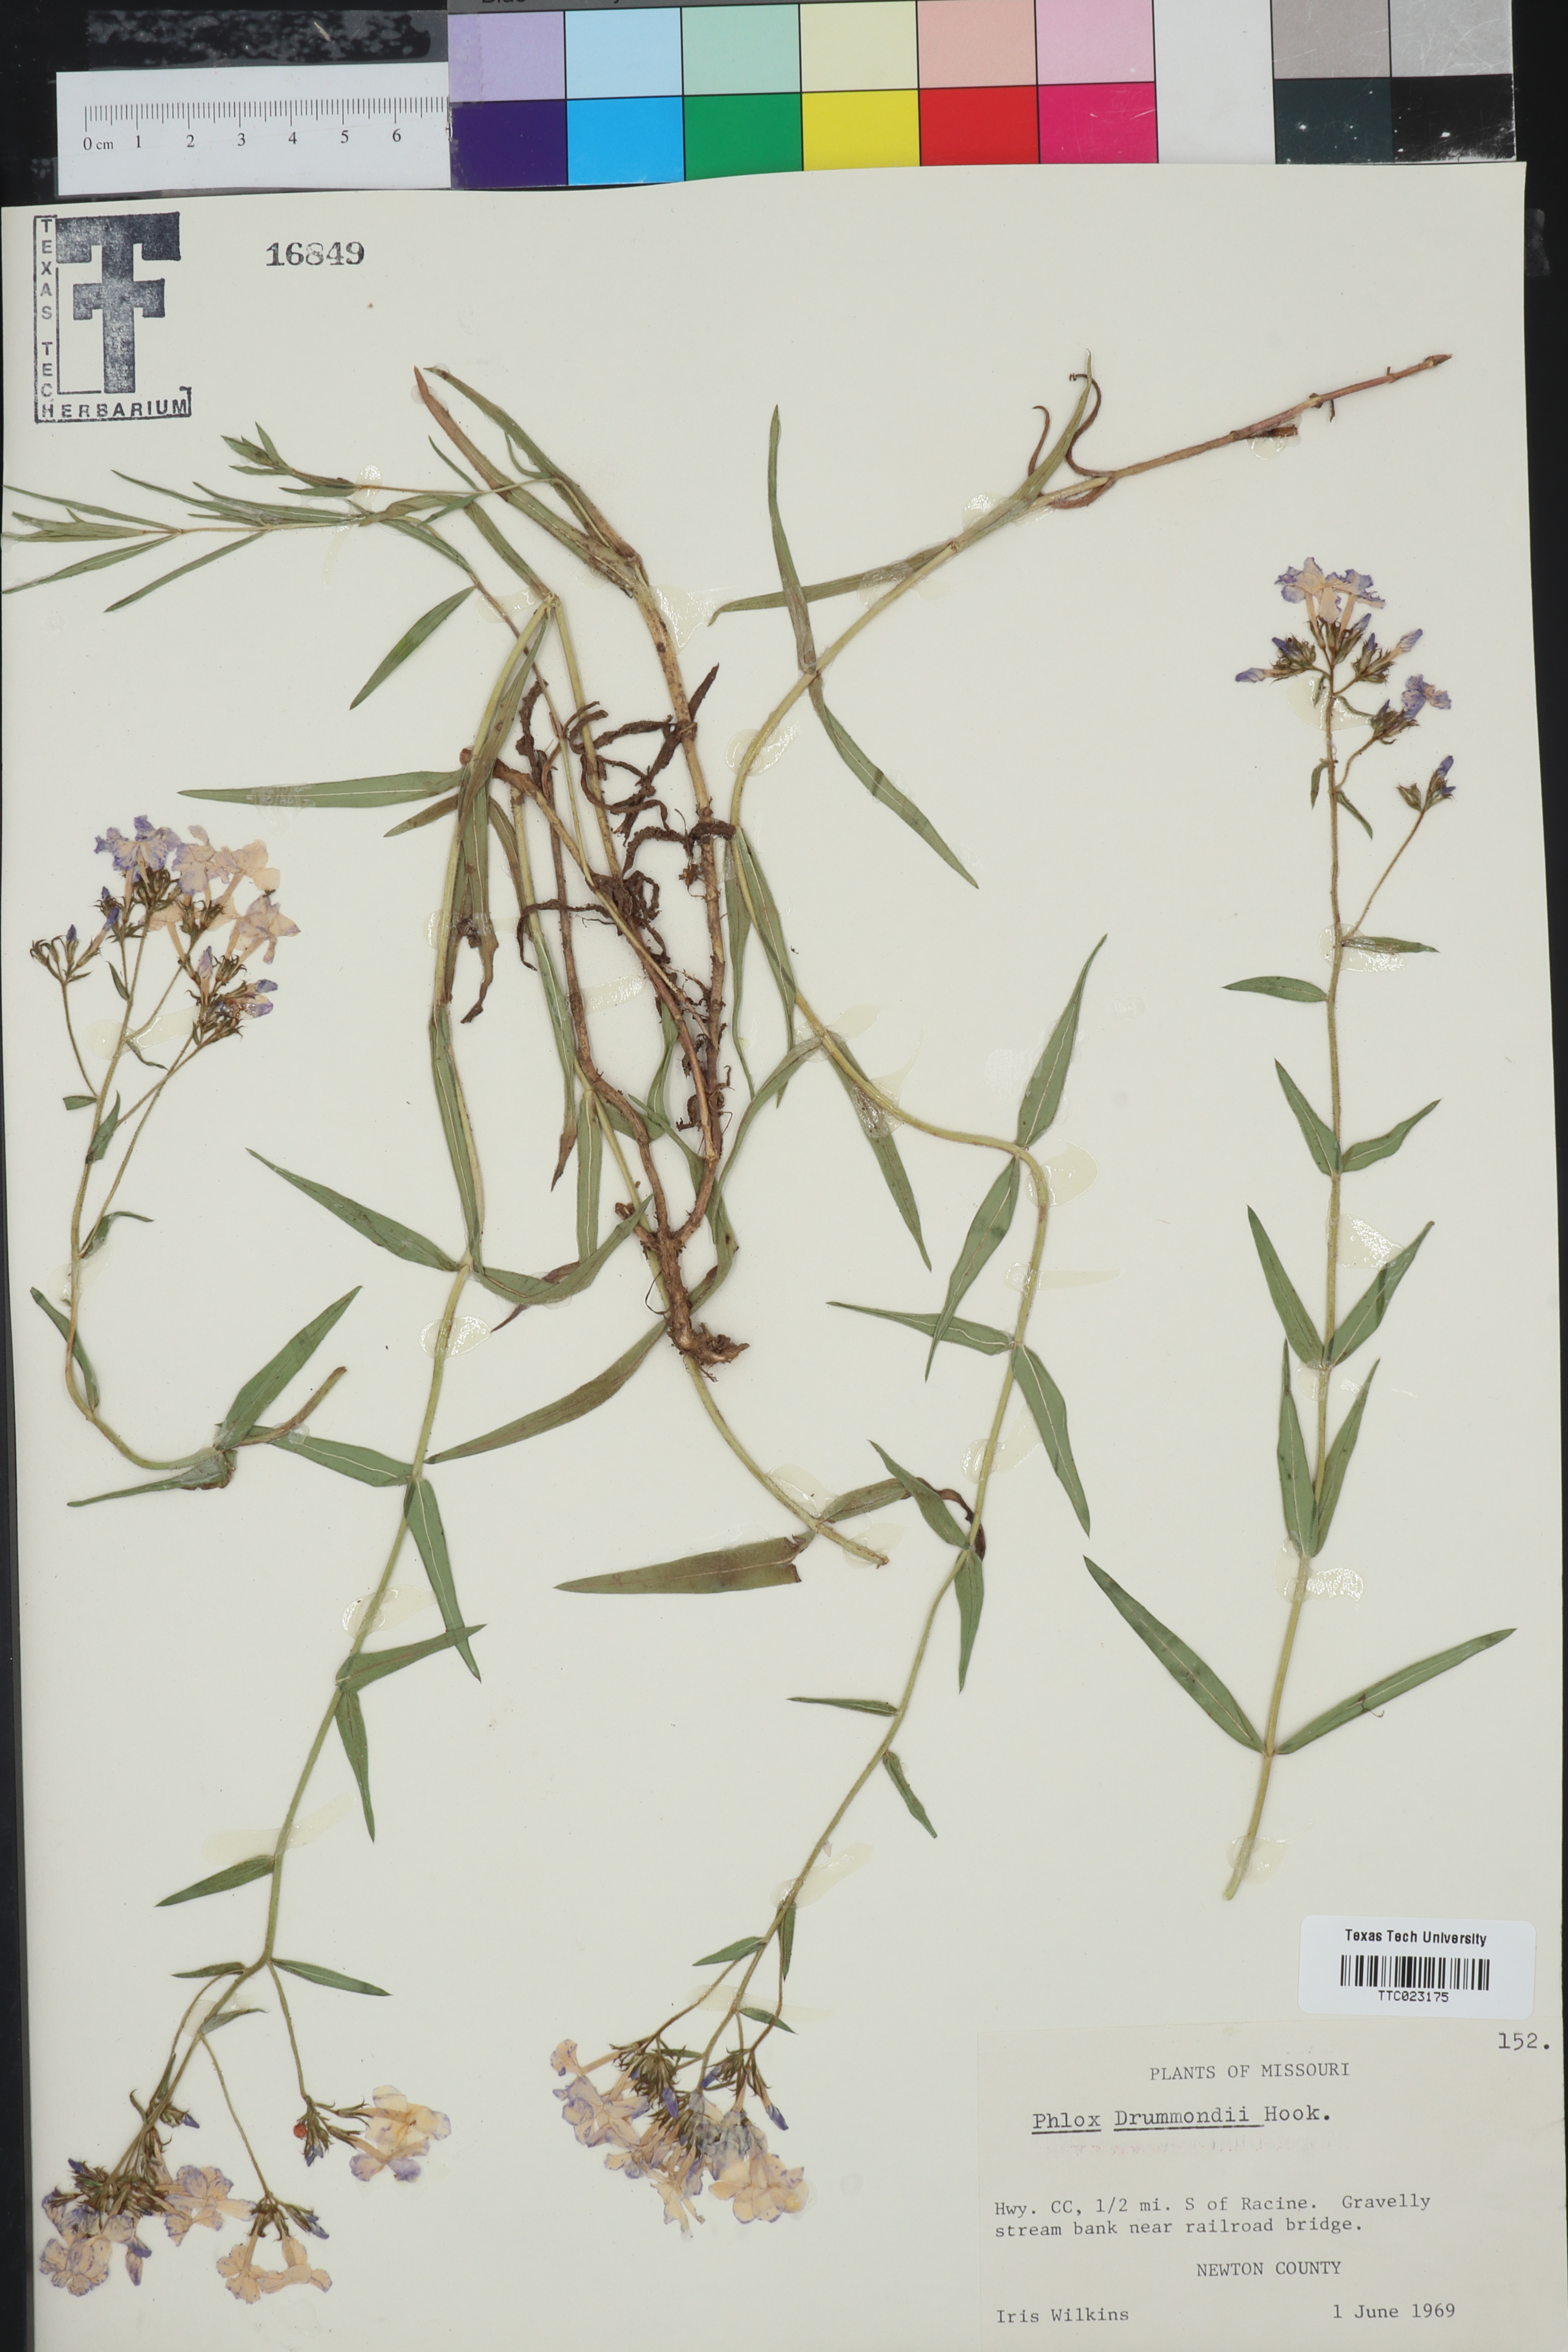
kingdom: Plantae
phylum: Tracheophyta
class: Magnoliopsida
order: Ericales
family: Polemoniaceae
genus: Phlox
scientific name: Phlox drummondii
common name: Drummond's phlox
